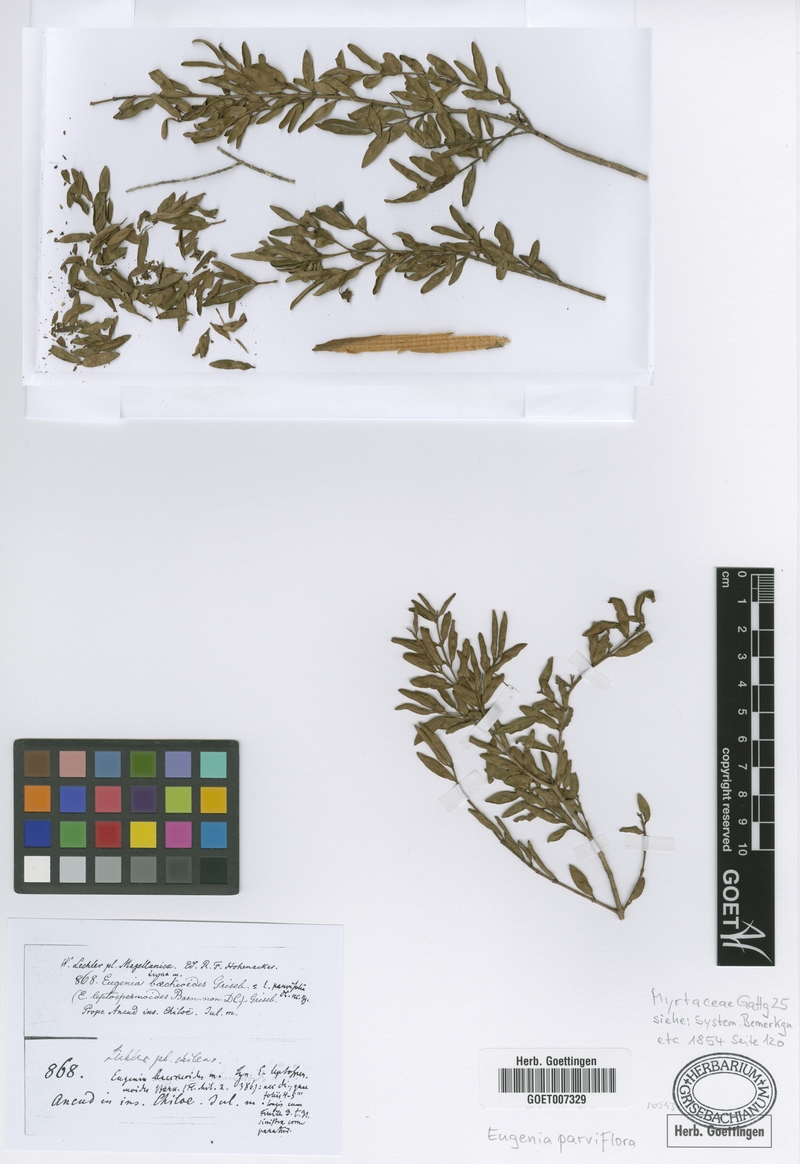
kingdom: Plantae
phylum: Tracheophyta
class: Magnoliopsida
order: Myrtales
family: Myrtaceae
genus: Myrceugenia
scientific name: Myrceugenia parvifolia
